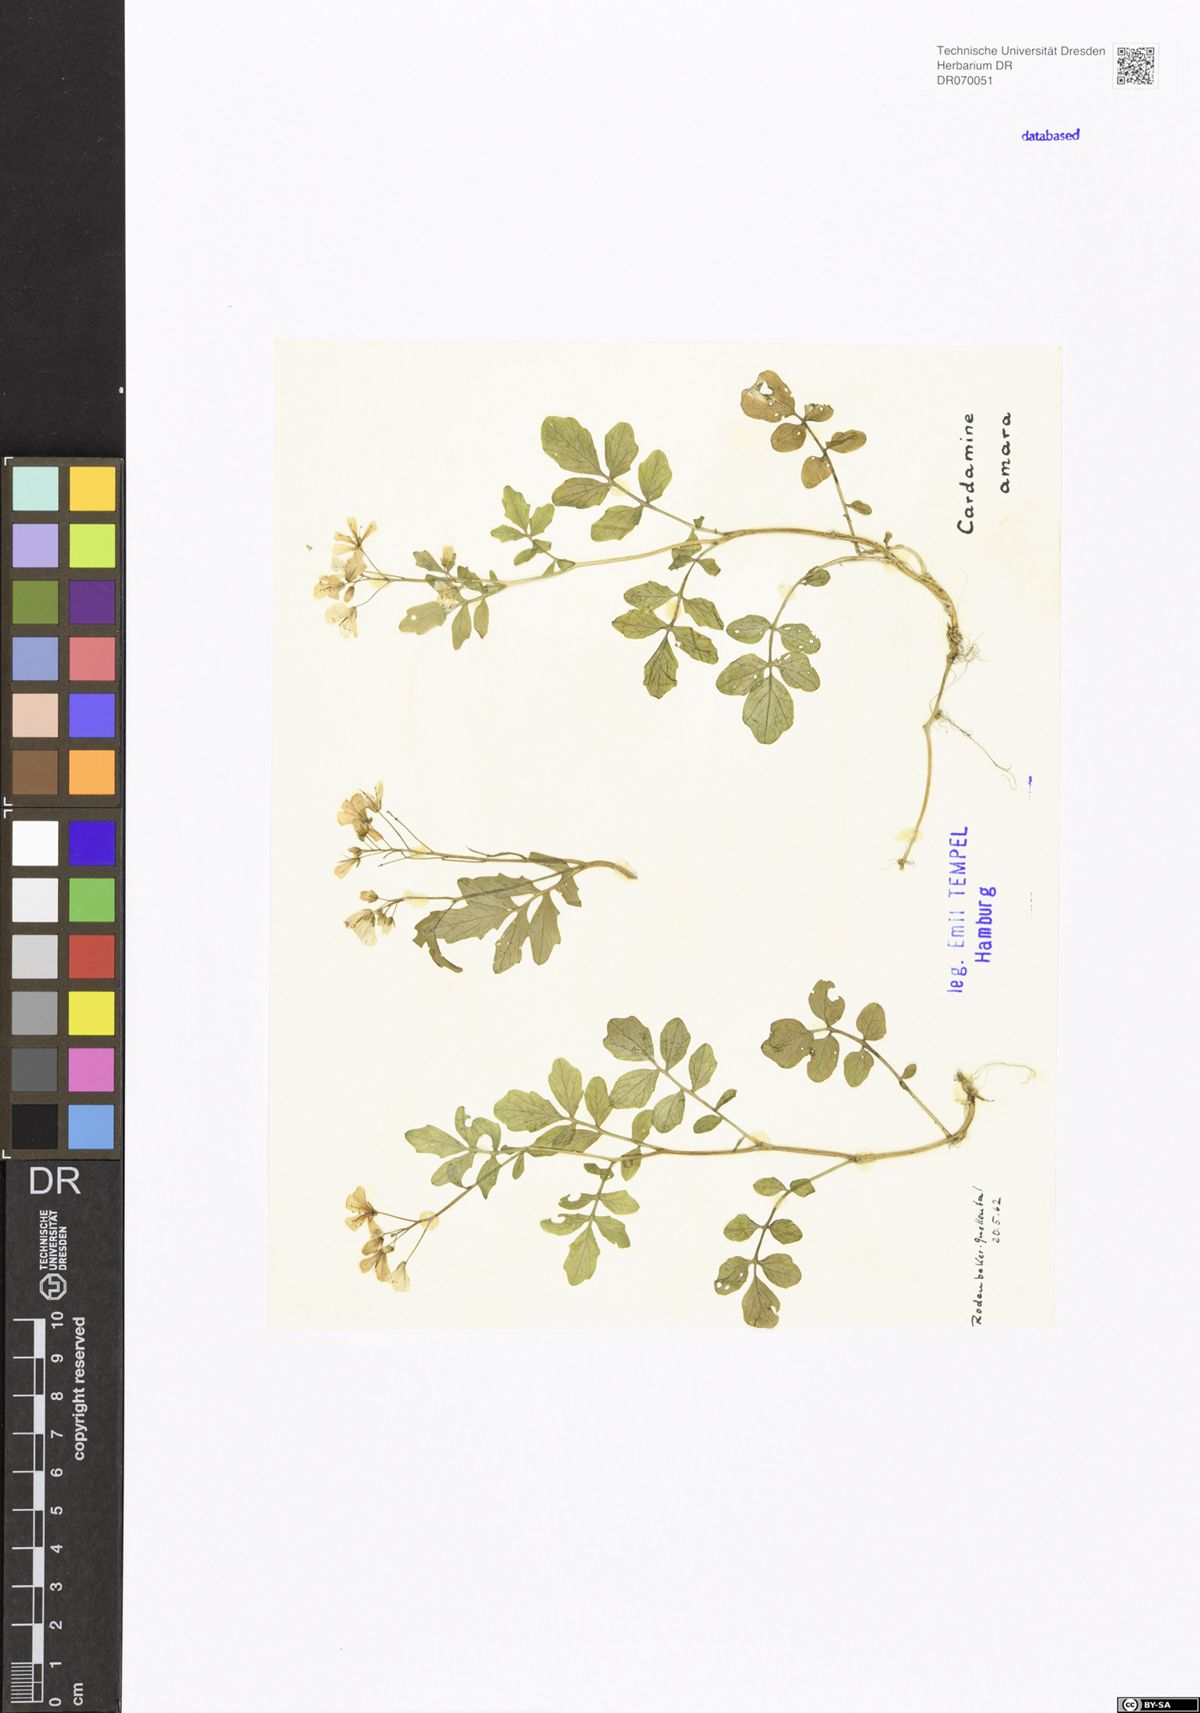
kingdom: Plantae
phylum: Tracheophyta
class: Magnoliopsida
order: Brassicales
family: Brassicaceae
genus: Cardamine
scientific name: Cardamine amara
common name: Large bitter-cress
